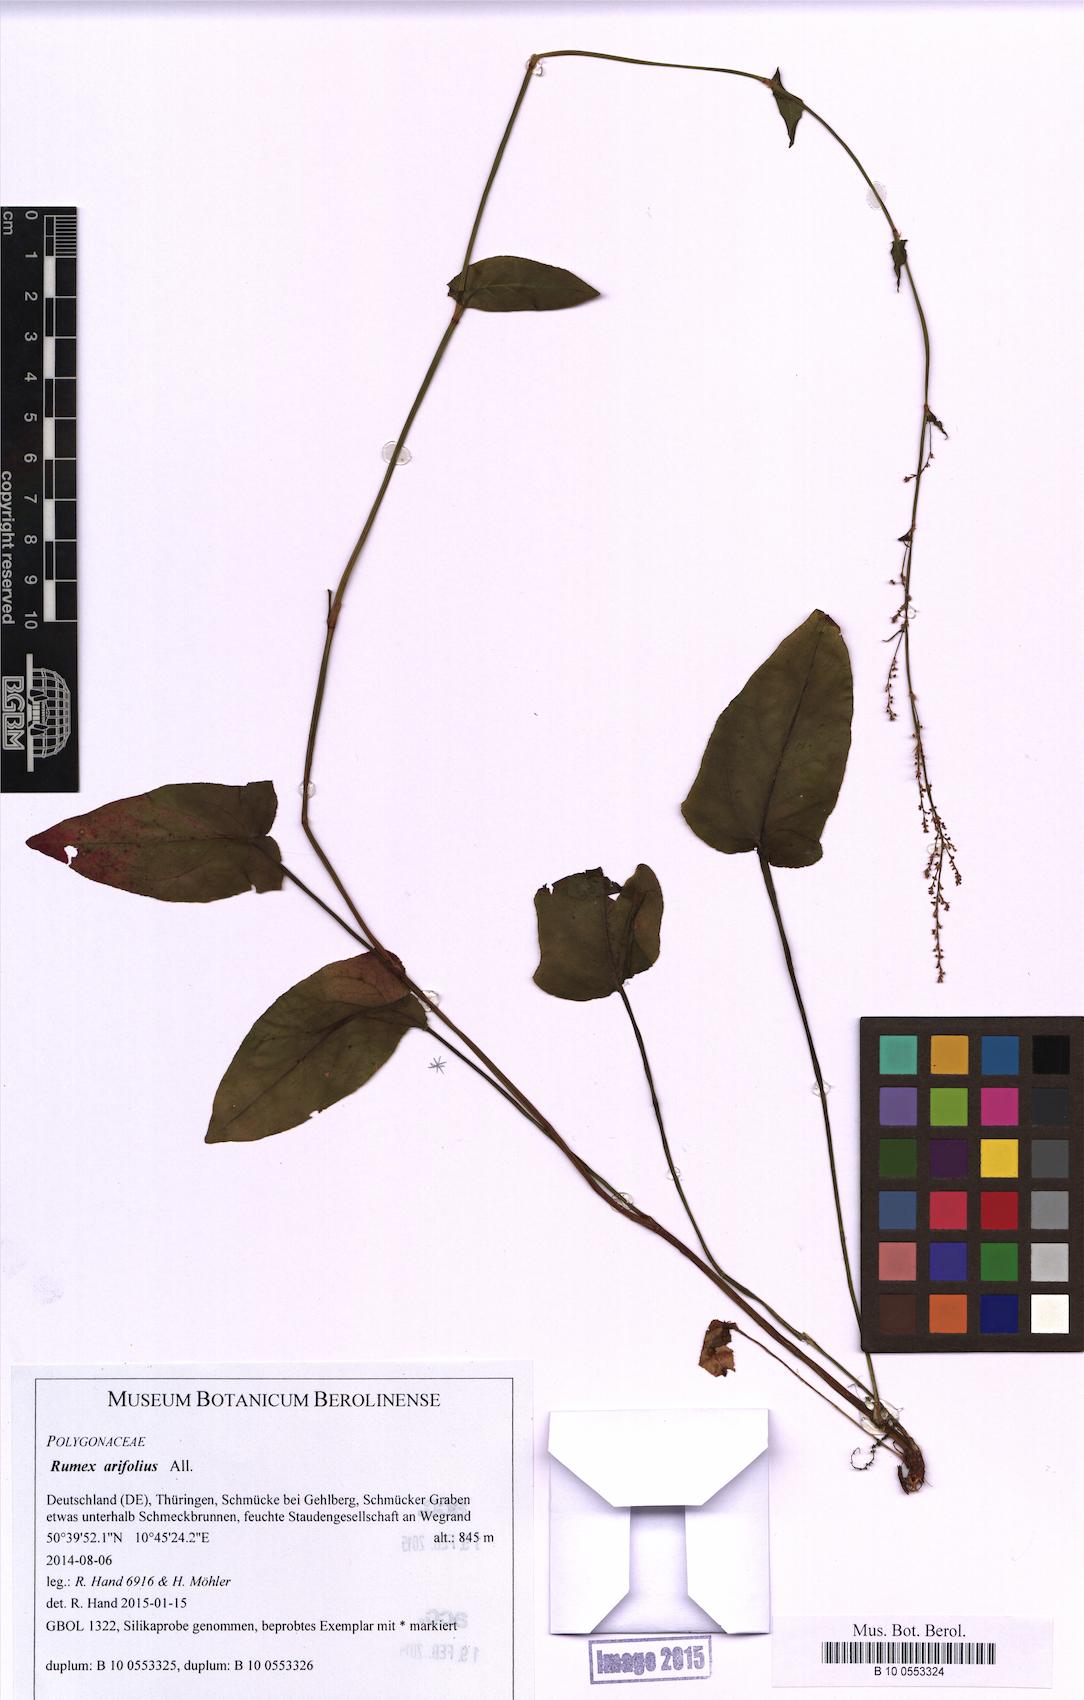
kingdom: Plantae
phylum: Tracheophyta
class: Magnoliopsida
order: Caryophyllales
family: Polygonaceae
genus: Rumex
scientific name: Rumex arifolius
